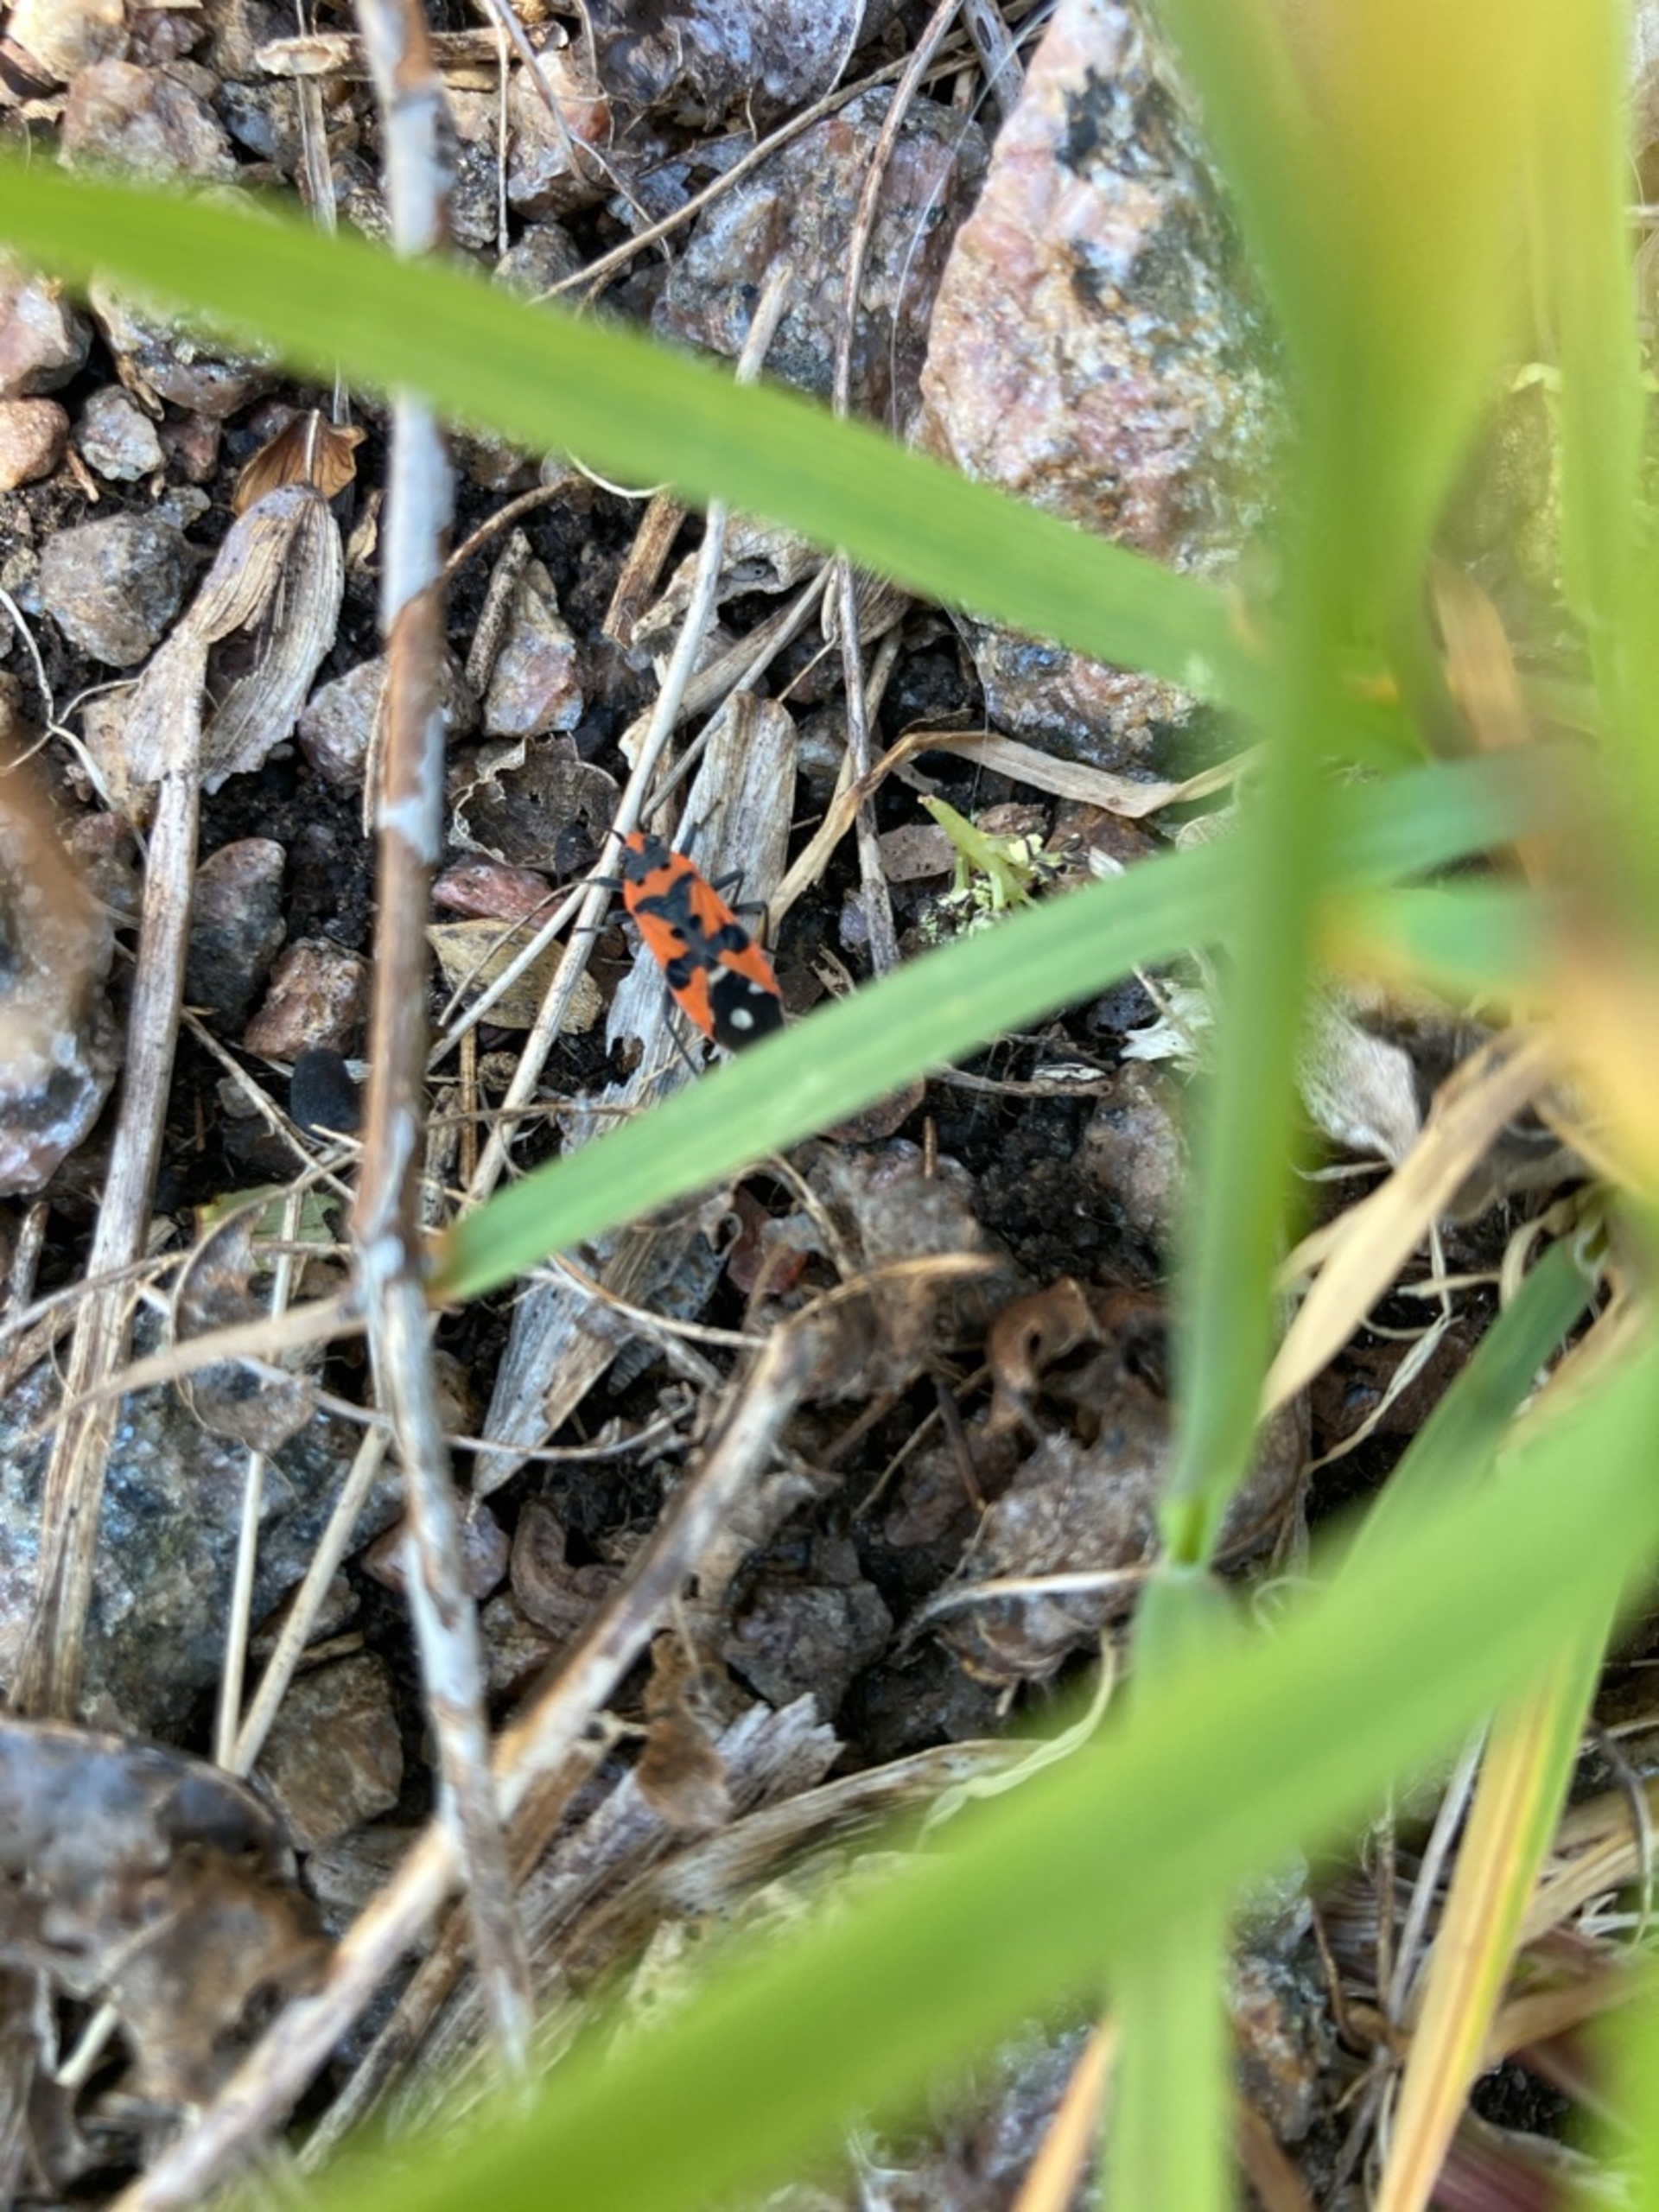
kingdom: Animalia
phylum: Arthropoda
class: Insecta
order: Hemiptera
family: Lygaeidae
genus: Lygaeus
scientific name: Lygaeus equestris
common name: Soldatertæge
